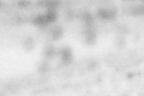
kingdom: Animalia
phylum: Chordata
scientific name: Chordata
